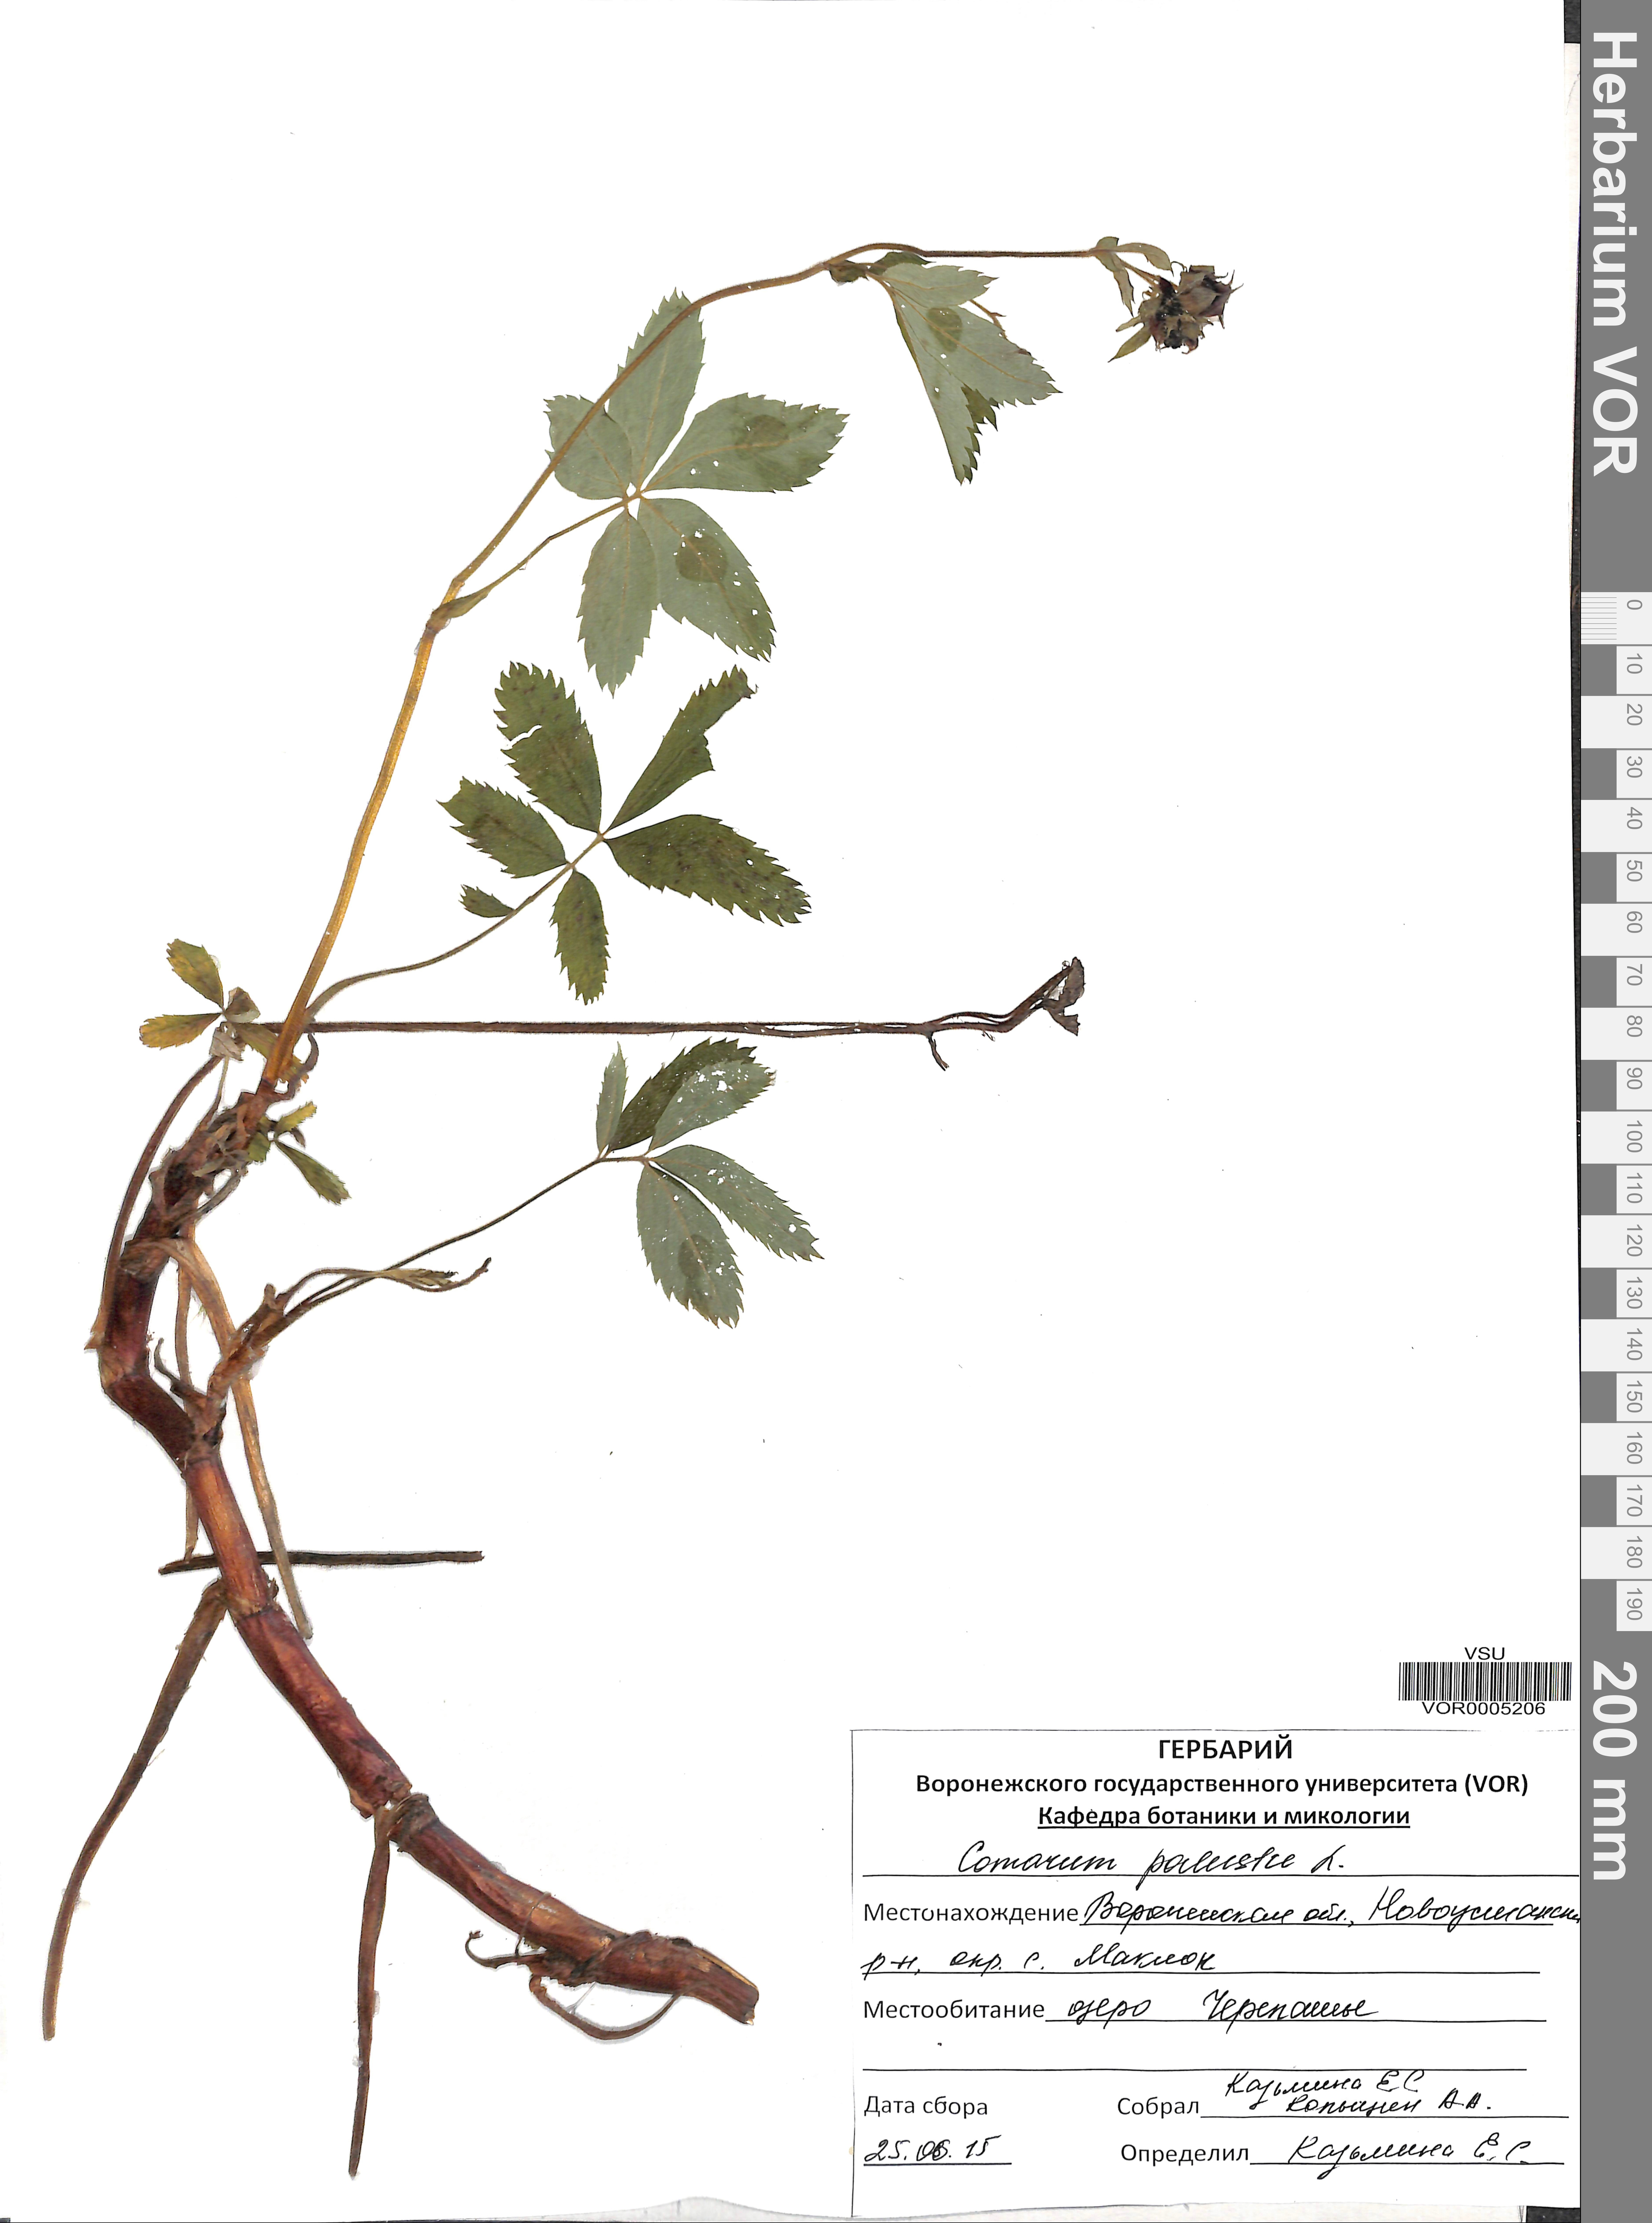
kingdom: Plantae
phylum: Tracheophyta
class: Magnoliopsida
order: Rosales
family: Rosaceae
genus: Comarum
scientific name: Comarum palustre
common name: Marsh cinquefoil
